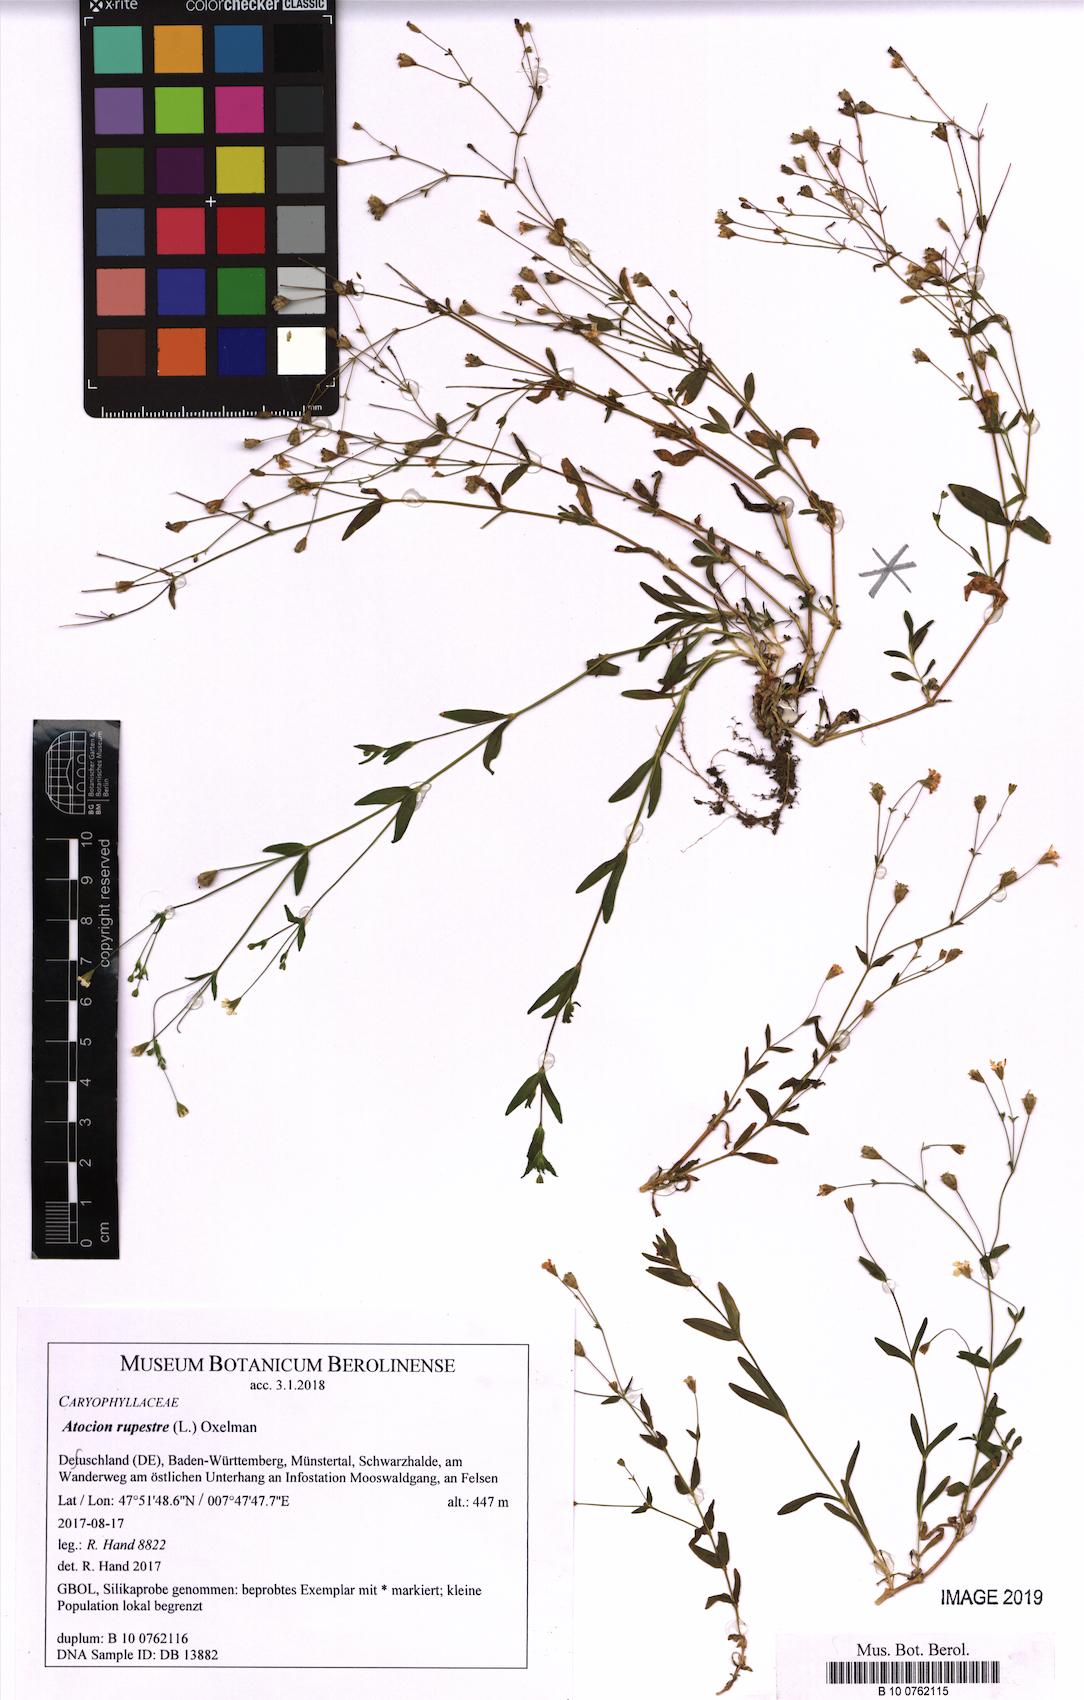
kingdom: Plantae
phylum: Tracheophyta
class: Magnoliopsida
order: Caryophyllales
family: Caryophyllaceae
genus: Atocion
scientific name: Atocion rupestre
